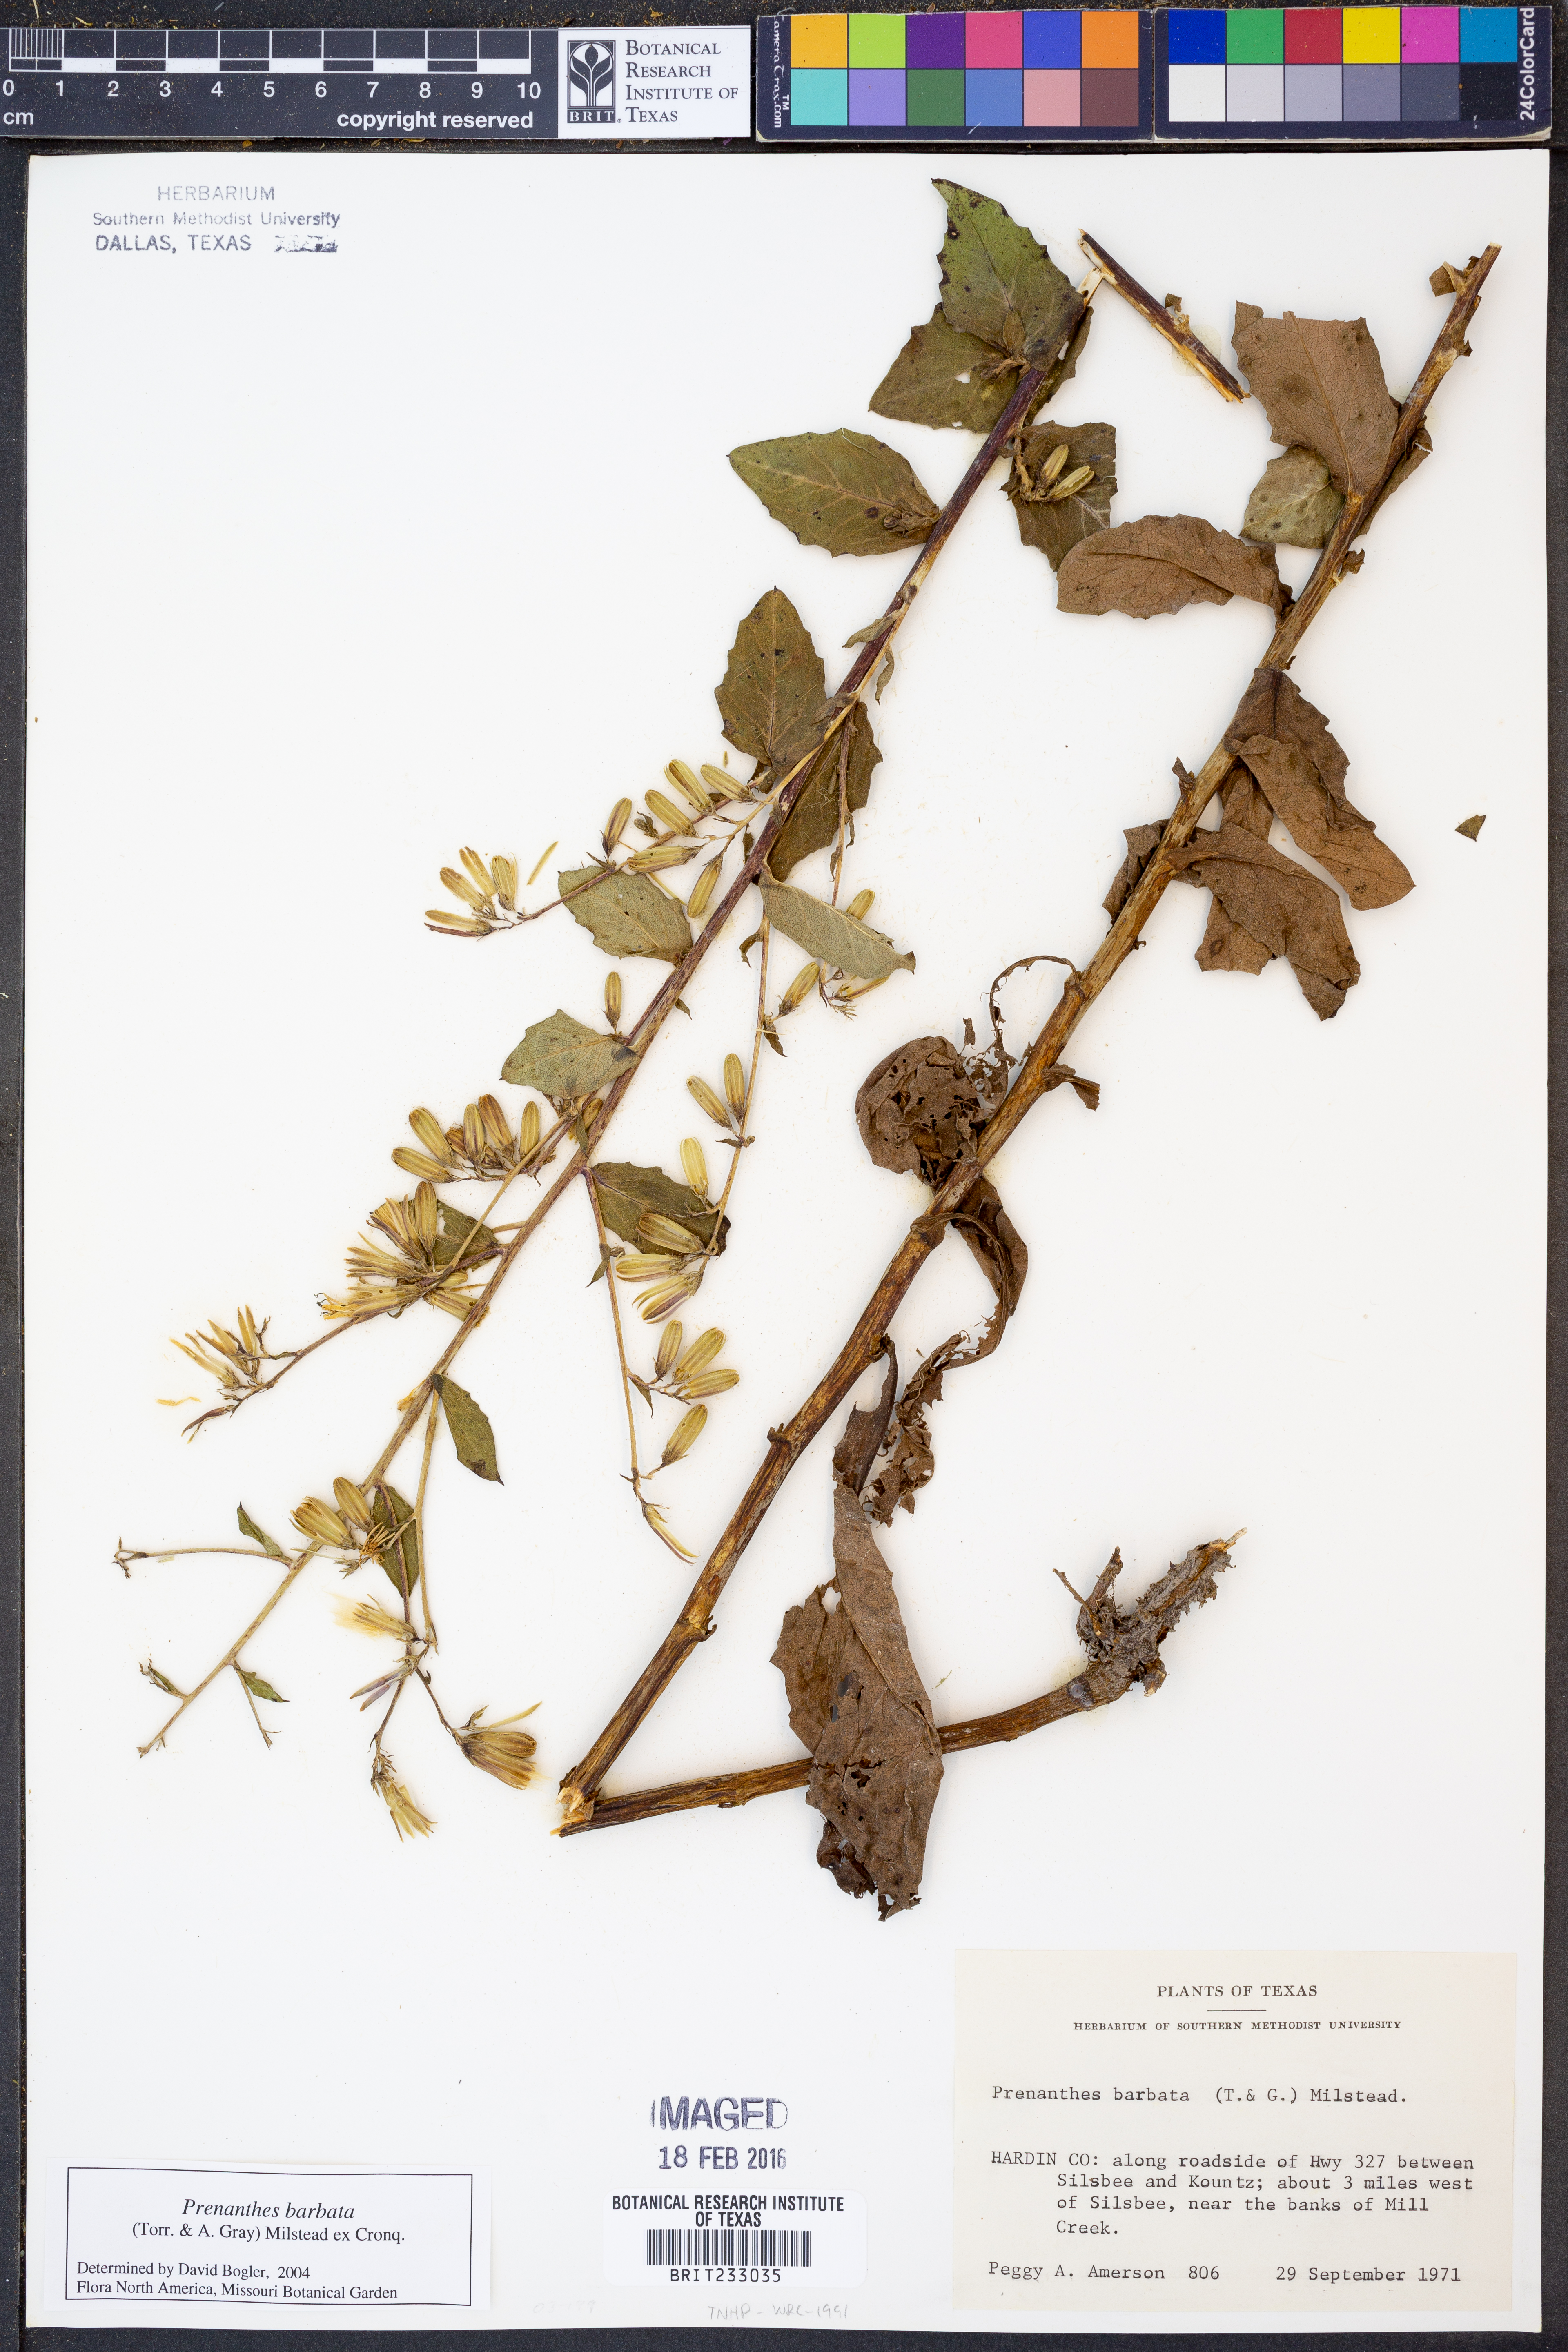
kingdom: Plantae
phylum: Tracheophyta
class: Magnoliopsida
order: Asterales
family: Asteraceae
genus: Nabalus
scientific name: Nabalus barbata
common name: Barbed rattlesnakeroot
